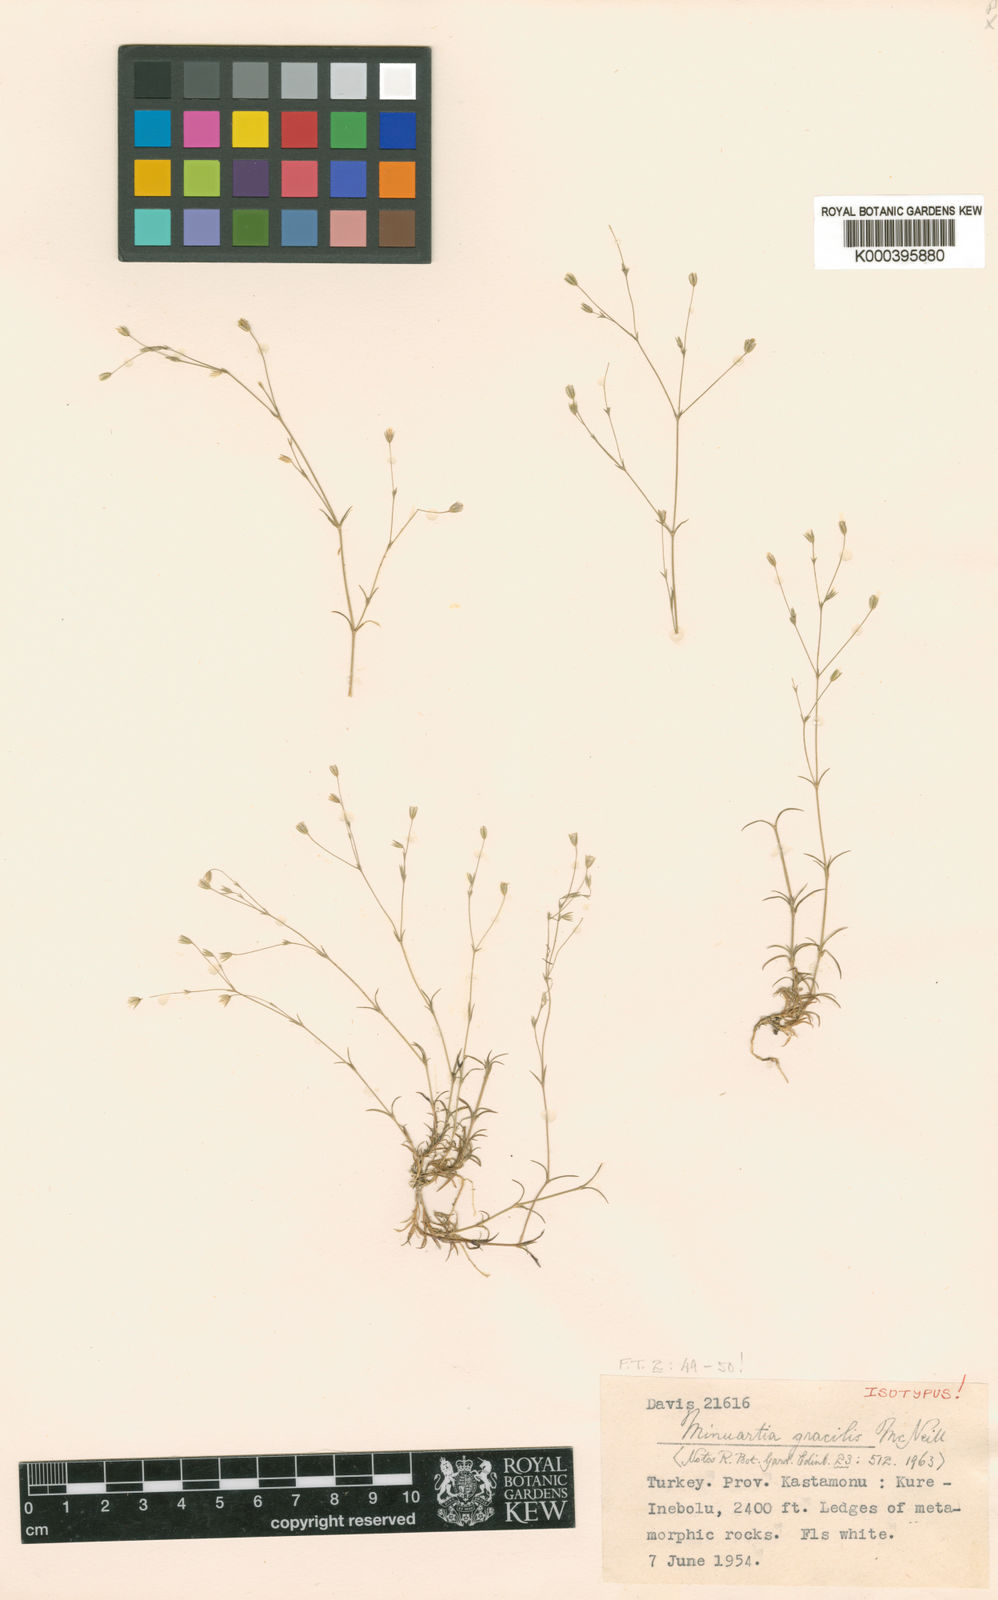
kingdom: Plantae
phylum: Tracheophyta
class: Magnoliopsida
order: Caryophyllales
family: Caryophyllaceae
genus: Sabulina
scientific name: Sabulina gracilis
